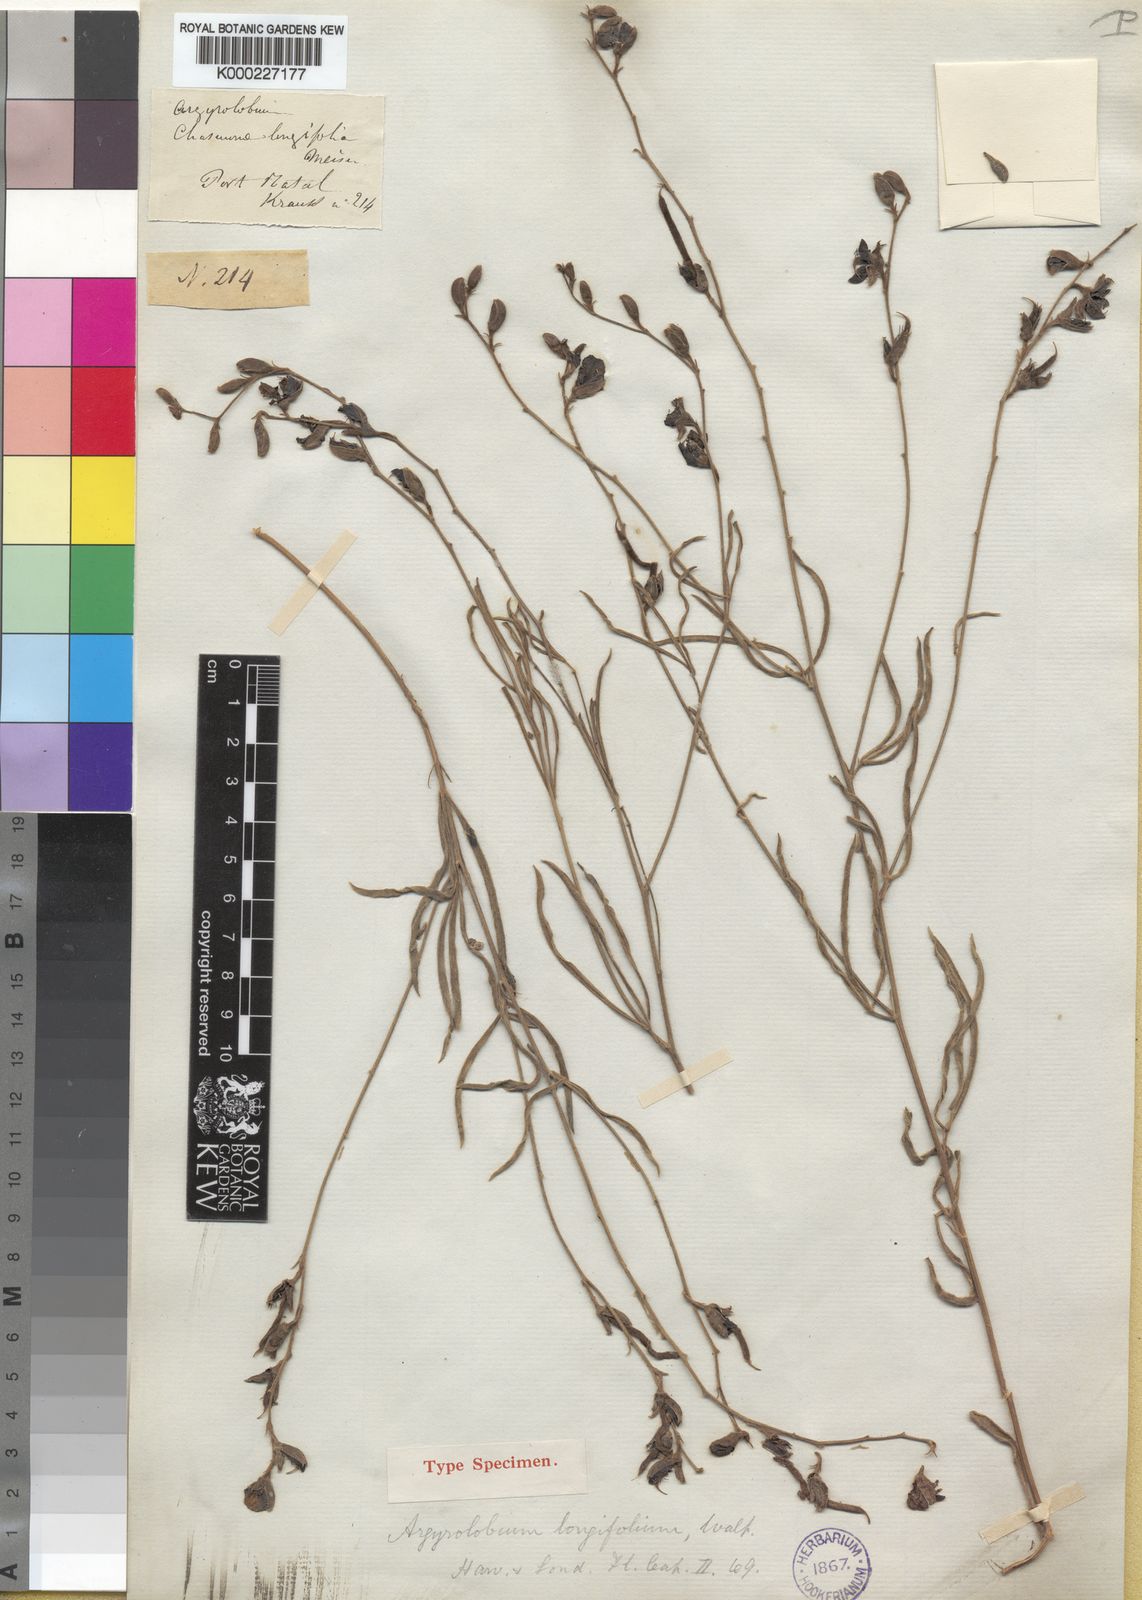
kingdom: Plantae
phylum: Tracheophyta
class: Magnoliopsida
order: Fabales
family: Fabaceae
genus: Argyrolobium
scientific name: Argyrolobium longifolium
